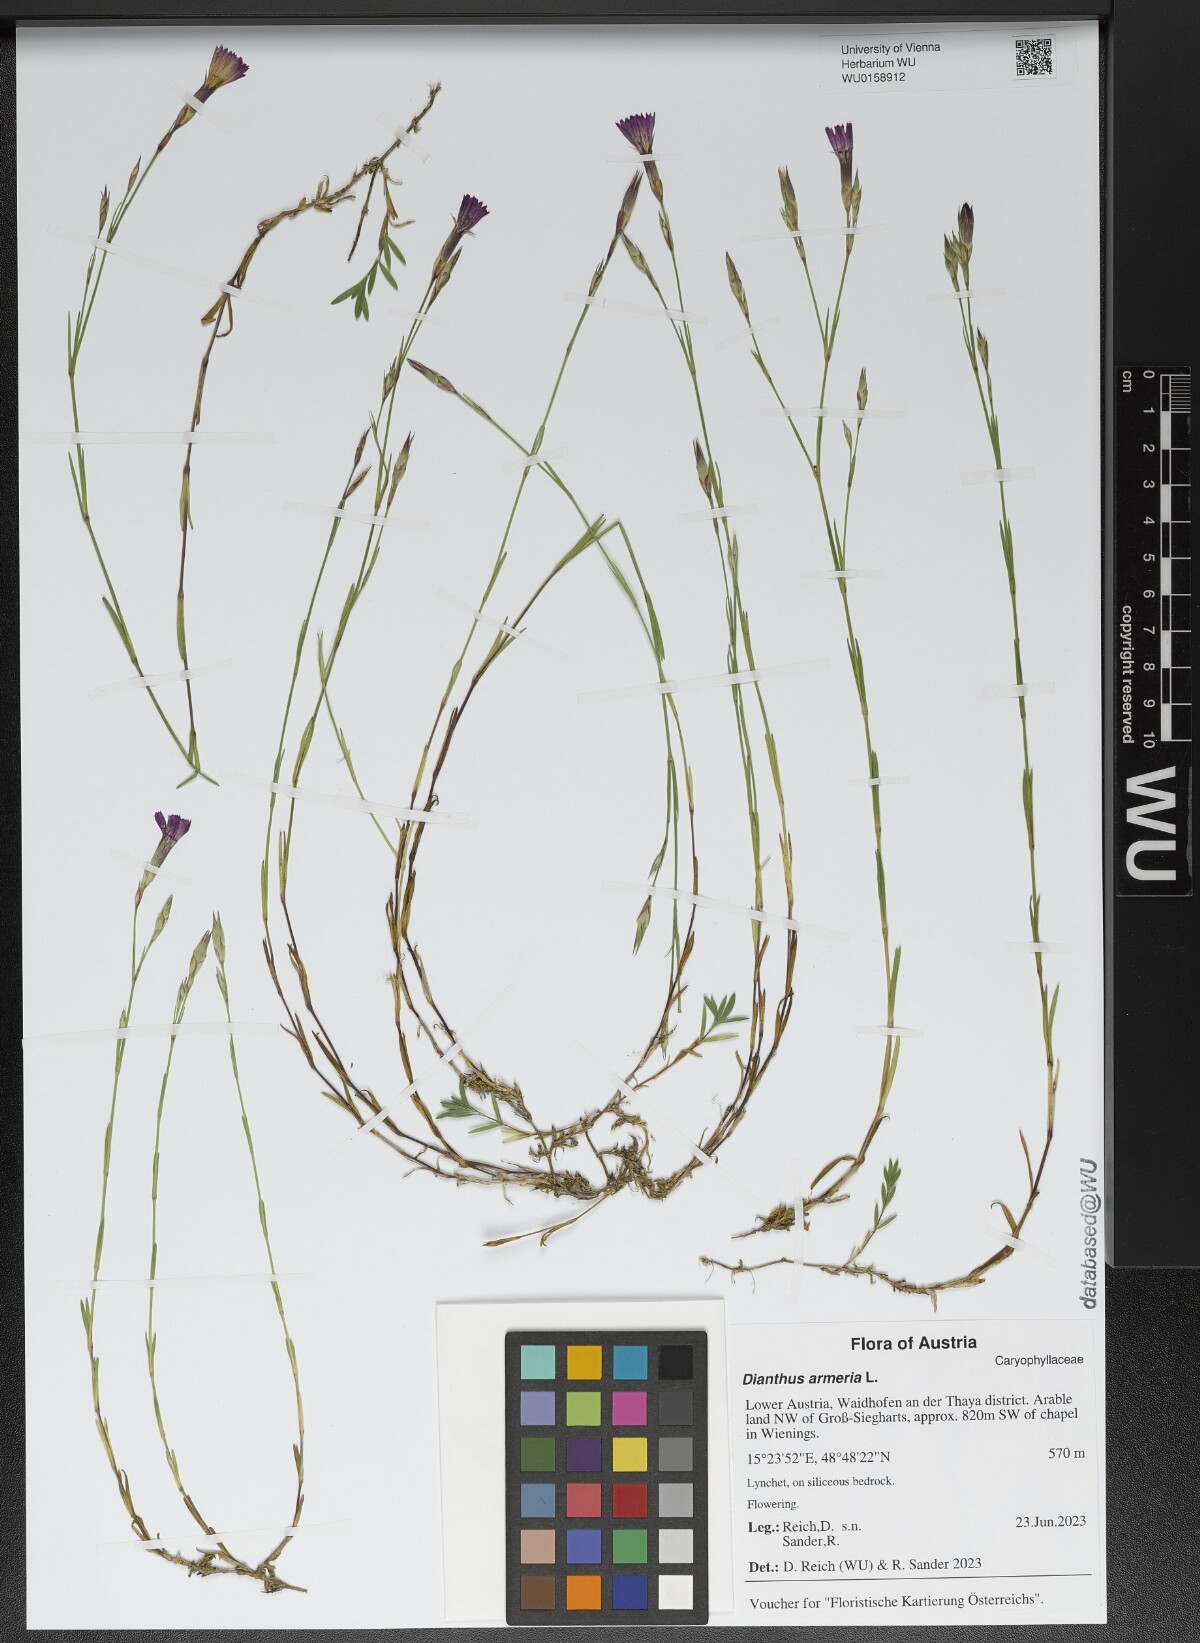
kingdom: Plantae
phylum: Tracheophyta
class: Magnoliopsida
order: Caryophyllales
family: Caryophyllaceae
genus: Dianthus
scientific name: Dianthus armeria
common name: Deptford pink
